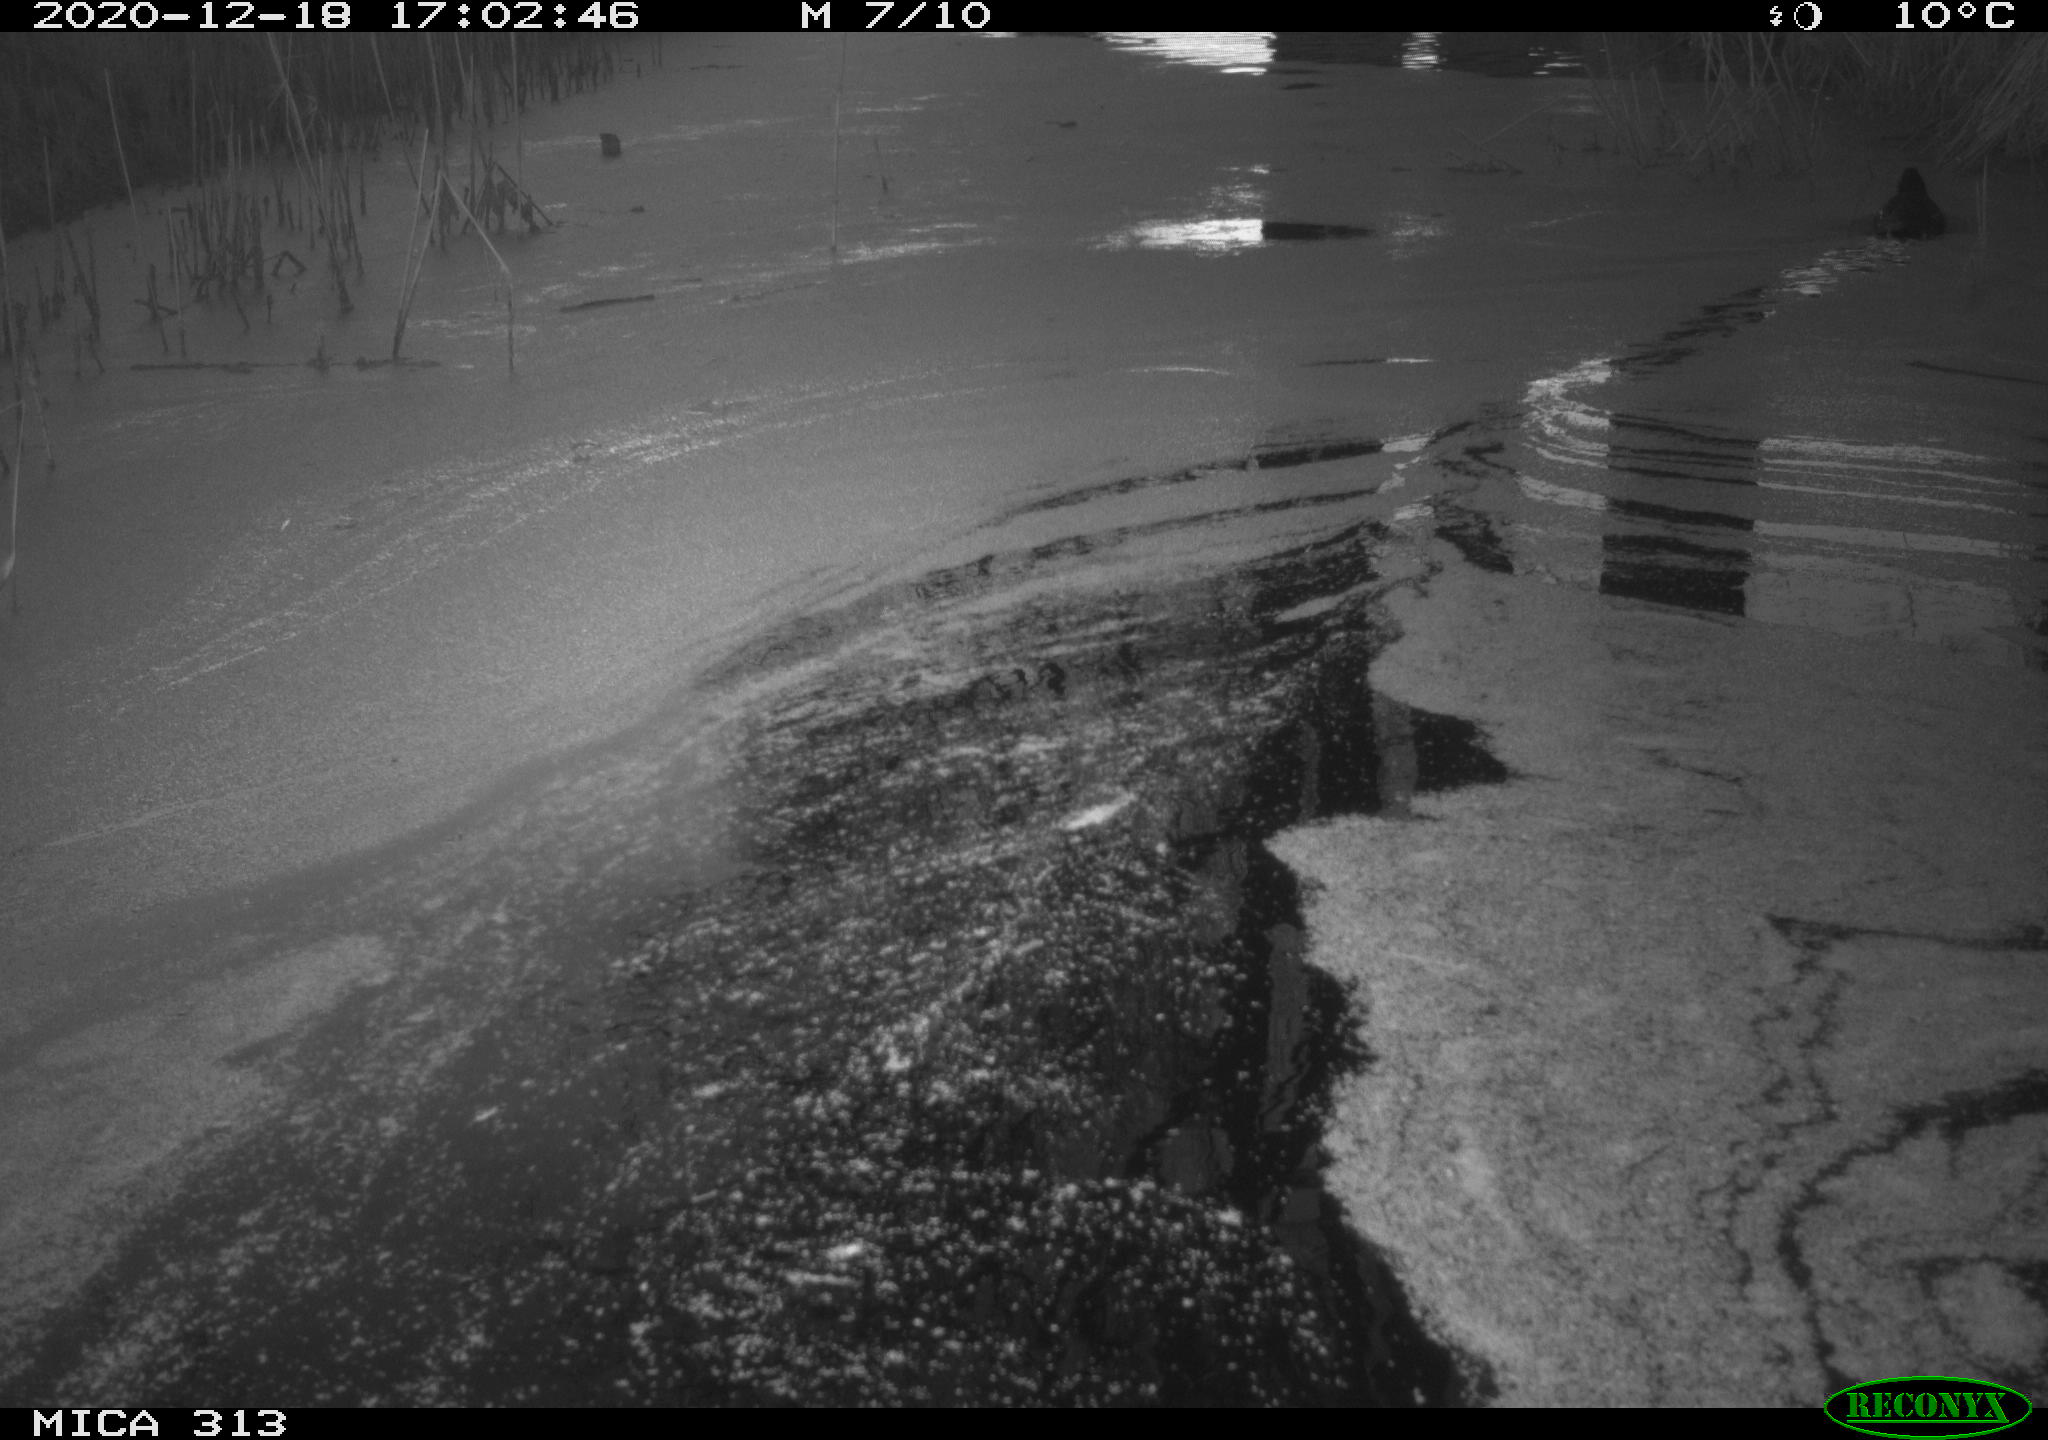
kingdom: Animalia
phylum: Chordata
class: Aves
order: Gruiformes
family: Rallidae
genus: Gallinula
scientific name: Gallinula chloropus
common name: Common moorhen
